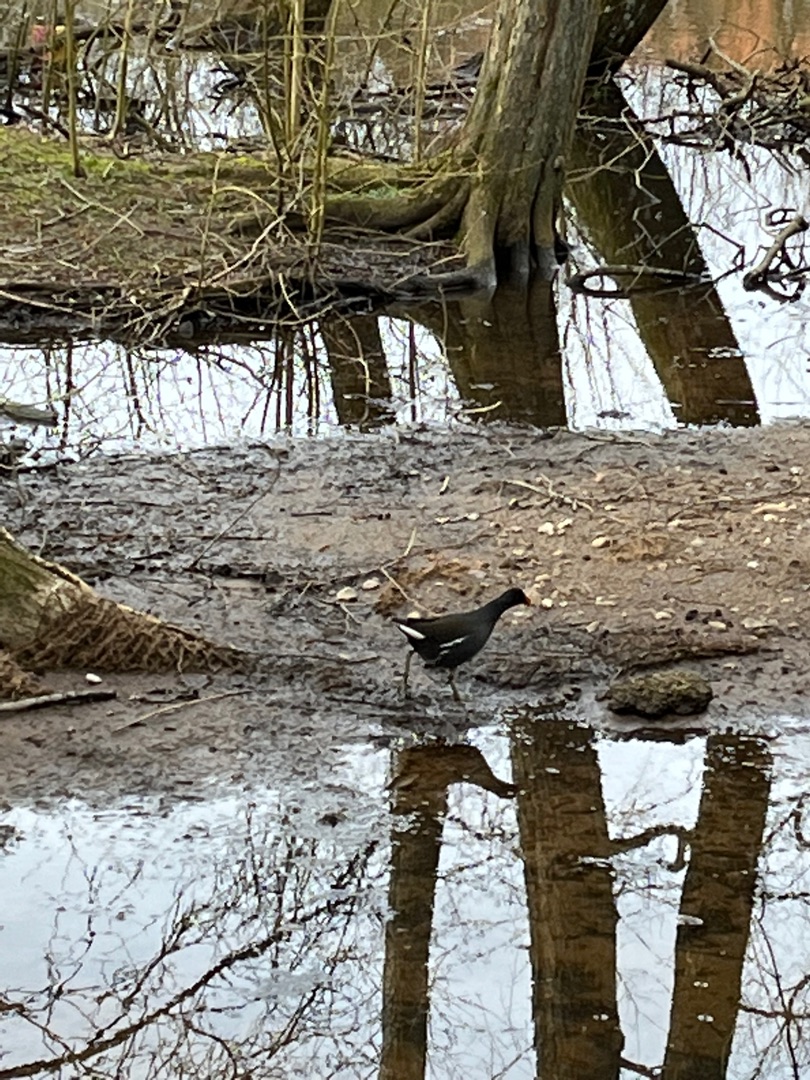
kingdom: Animalia
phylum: Chordata
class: Aves
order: Gruiformes
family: Rallidae
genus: Gallinula
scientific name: Gallinula chloropus
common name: Grønbenet rørhøne
